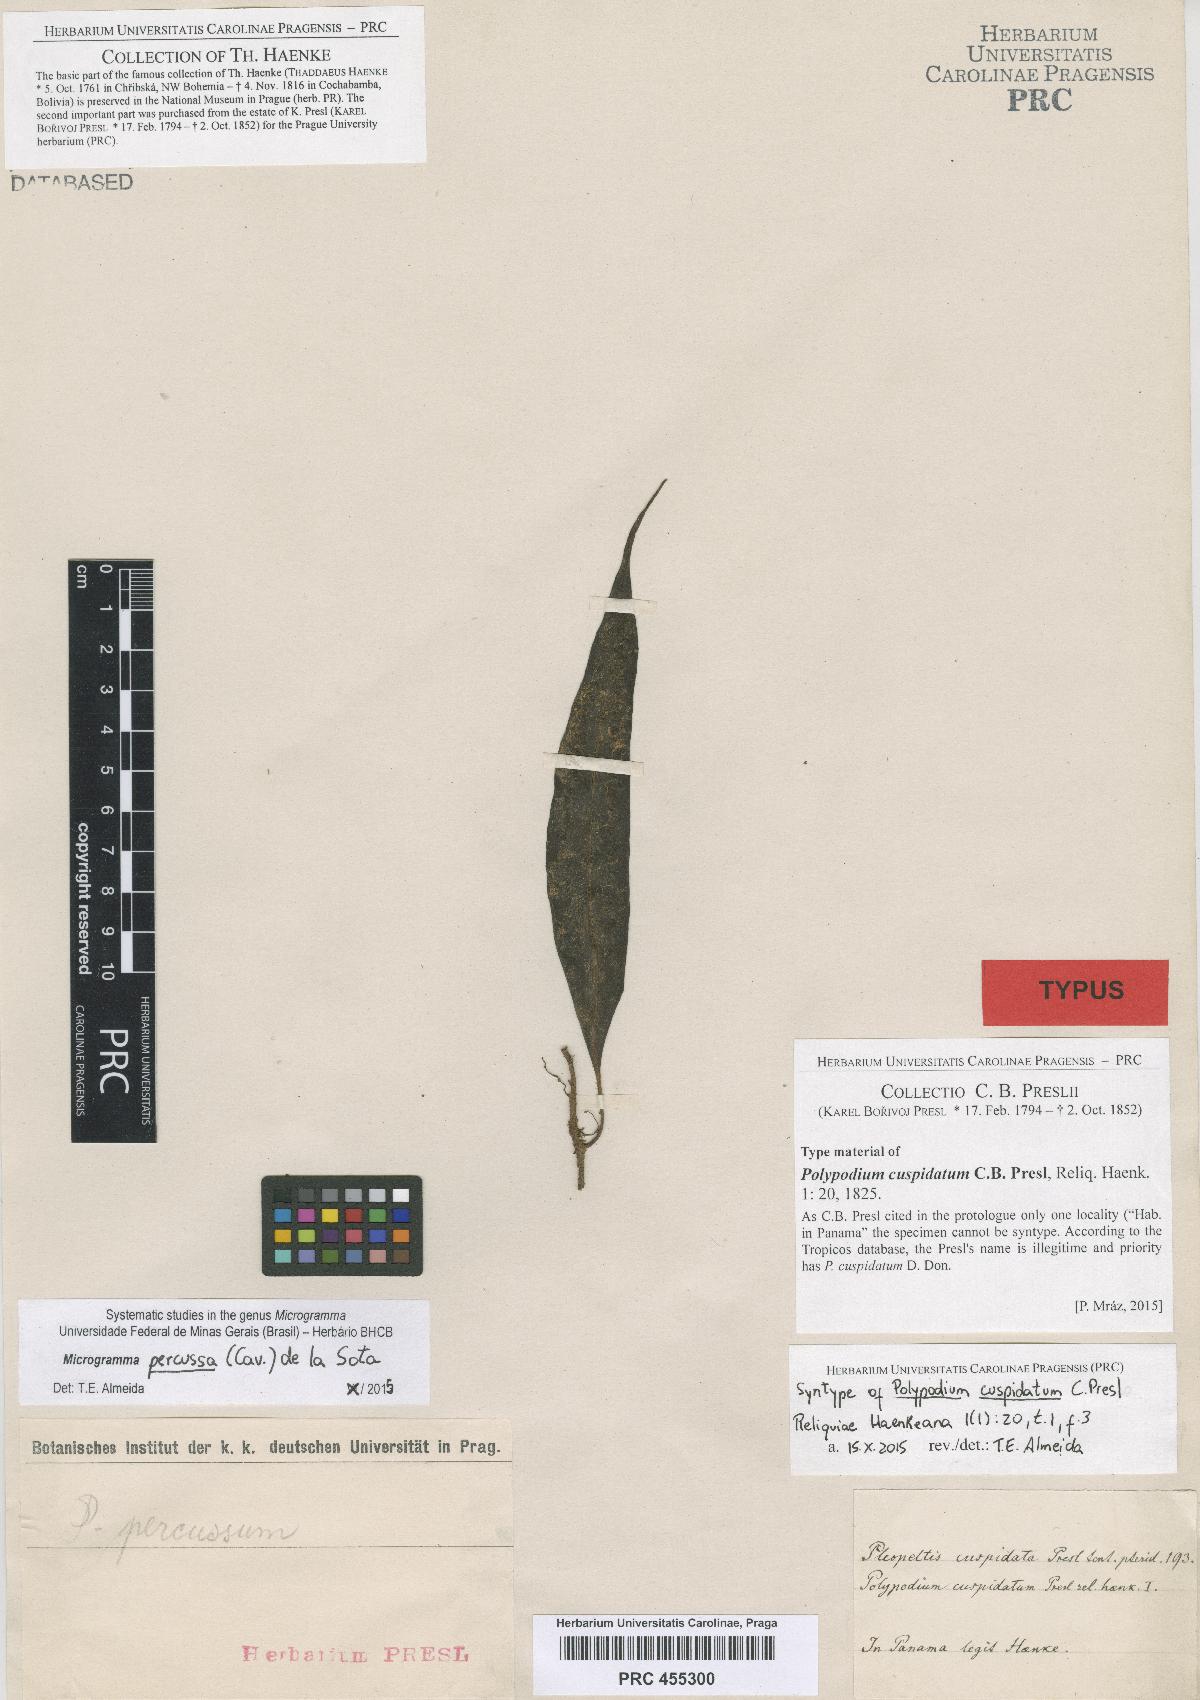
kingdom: Plantae
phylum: Tracheophyta
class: Polypodiopsida
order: Polypodiales
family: Polypodiaceae
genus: Microgramma
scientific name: Microgramma percussa
